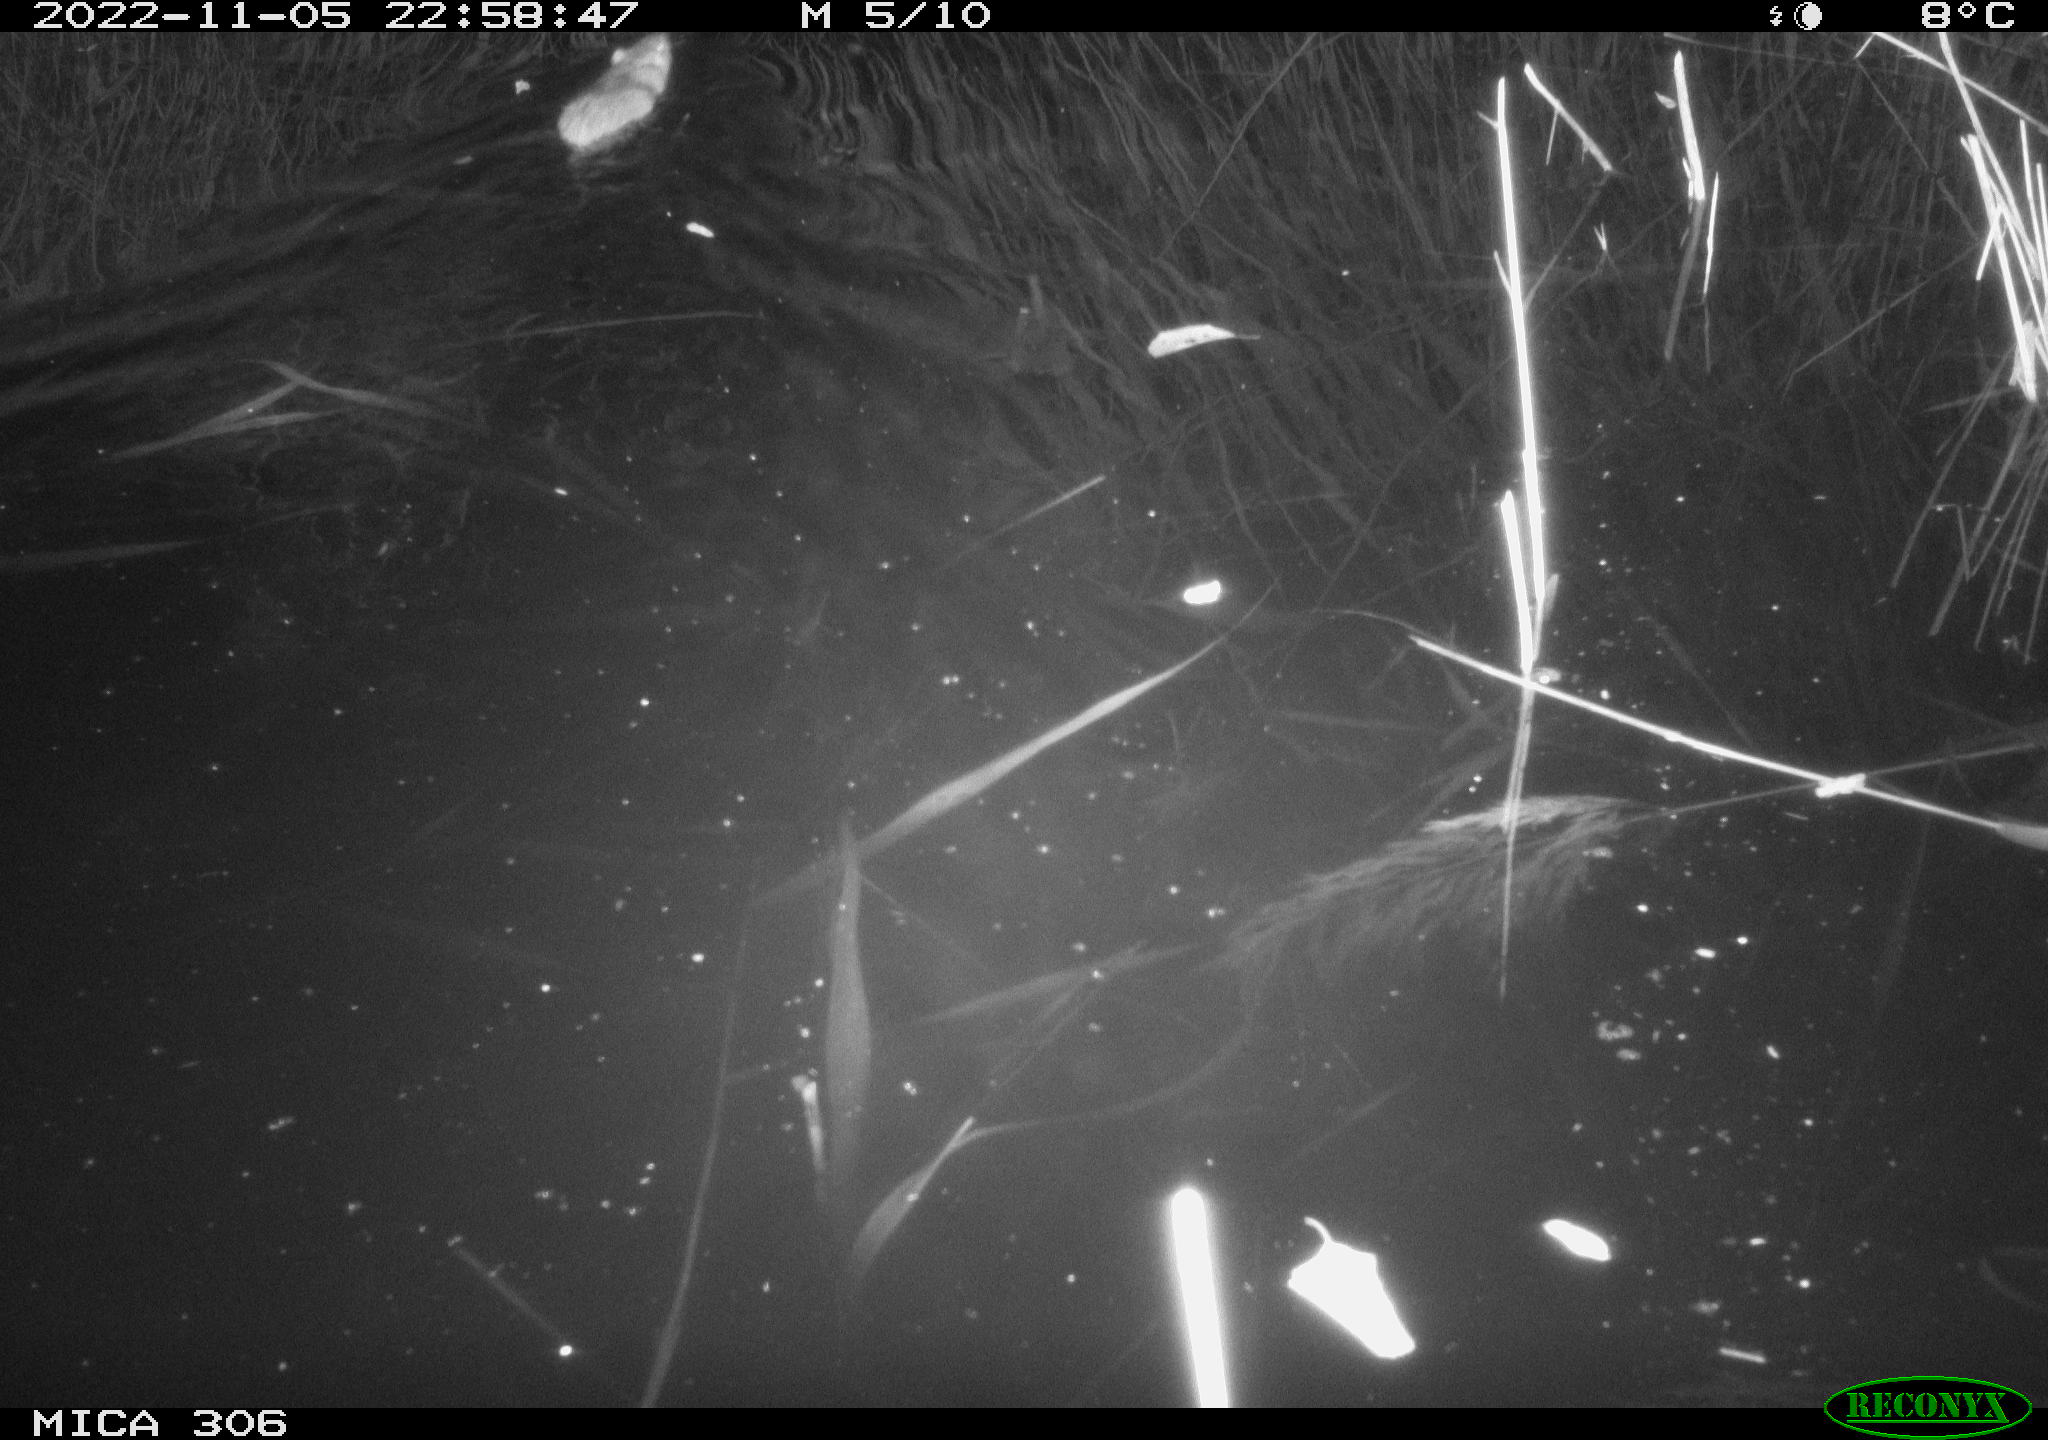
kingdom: Animalia
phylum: Chordata
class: Mammalia
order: Rodentia
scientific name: Rodentia
